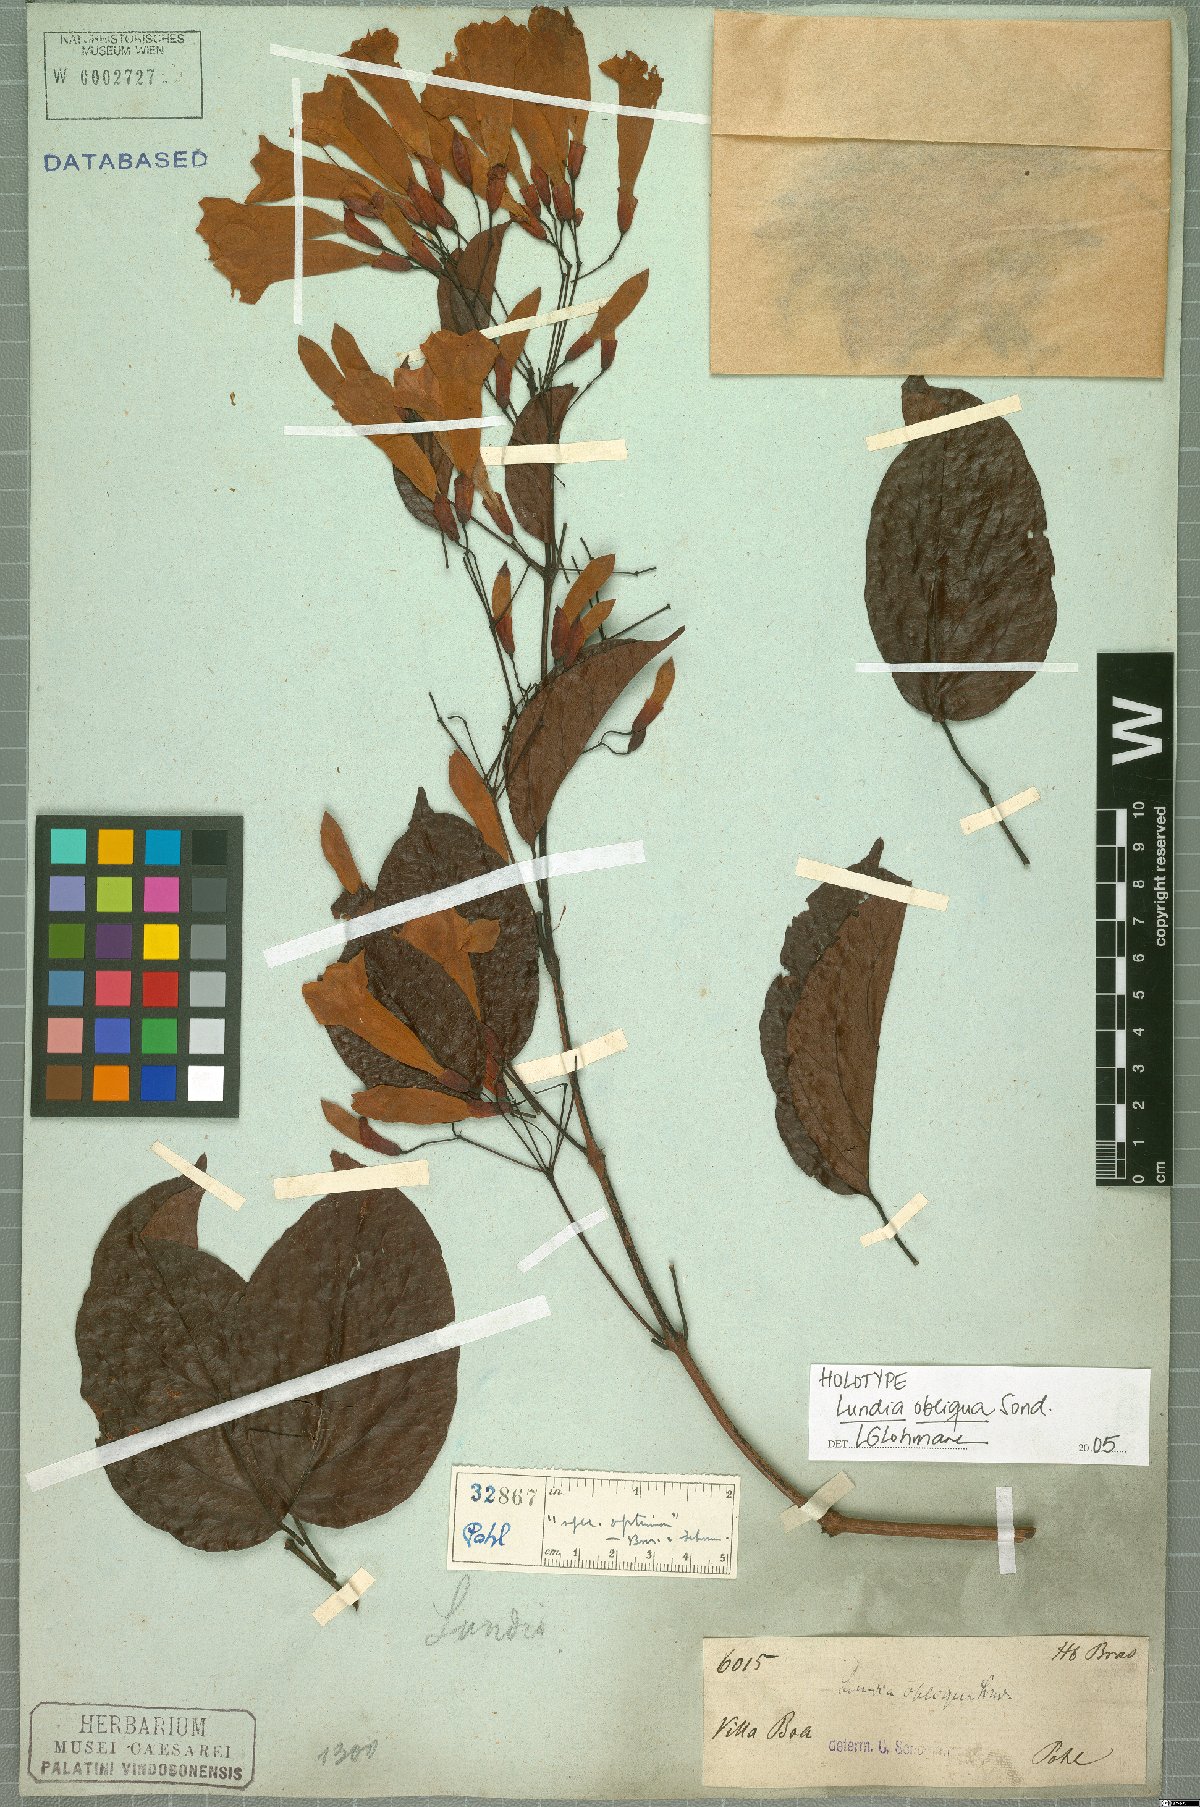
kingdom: Plantae
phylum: Tracheophyta
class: Magnoliopsida
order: Lamiales
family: Bignoniaceae
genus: Lundia
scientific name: Lundia obliqua
